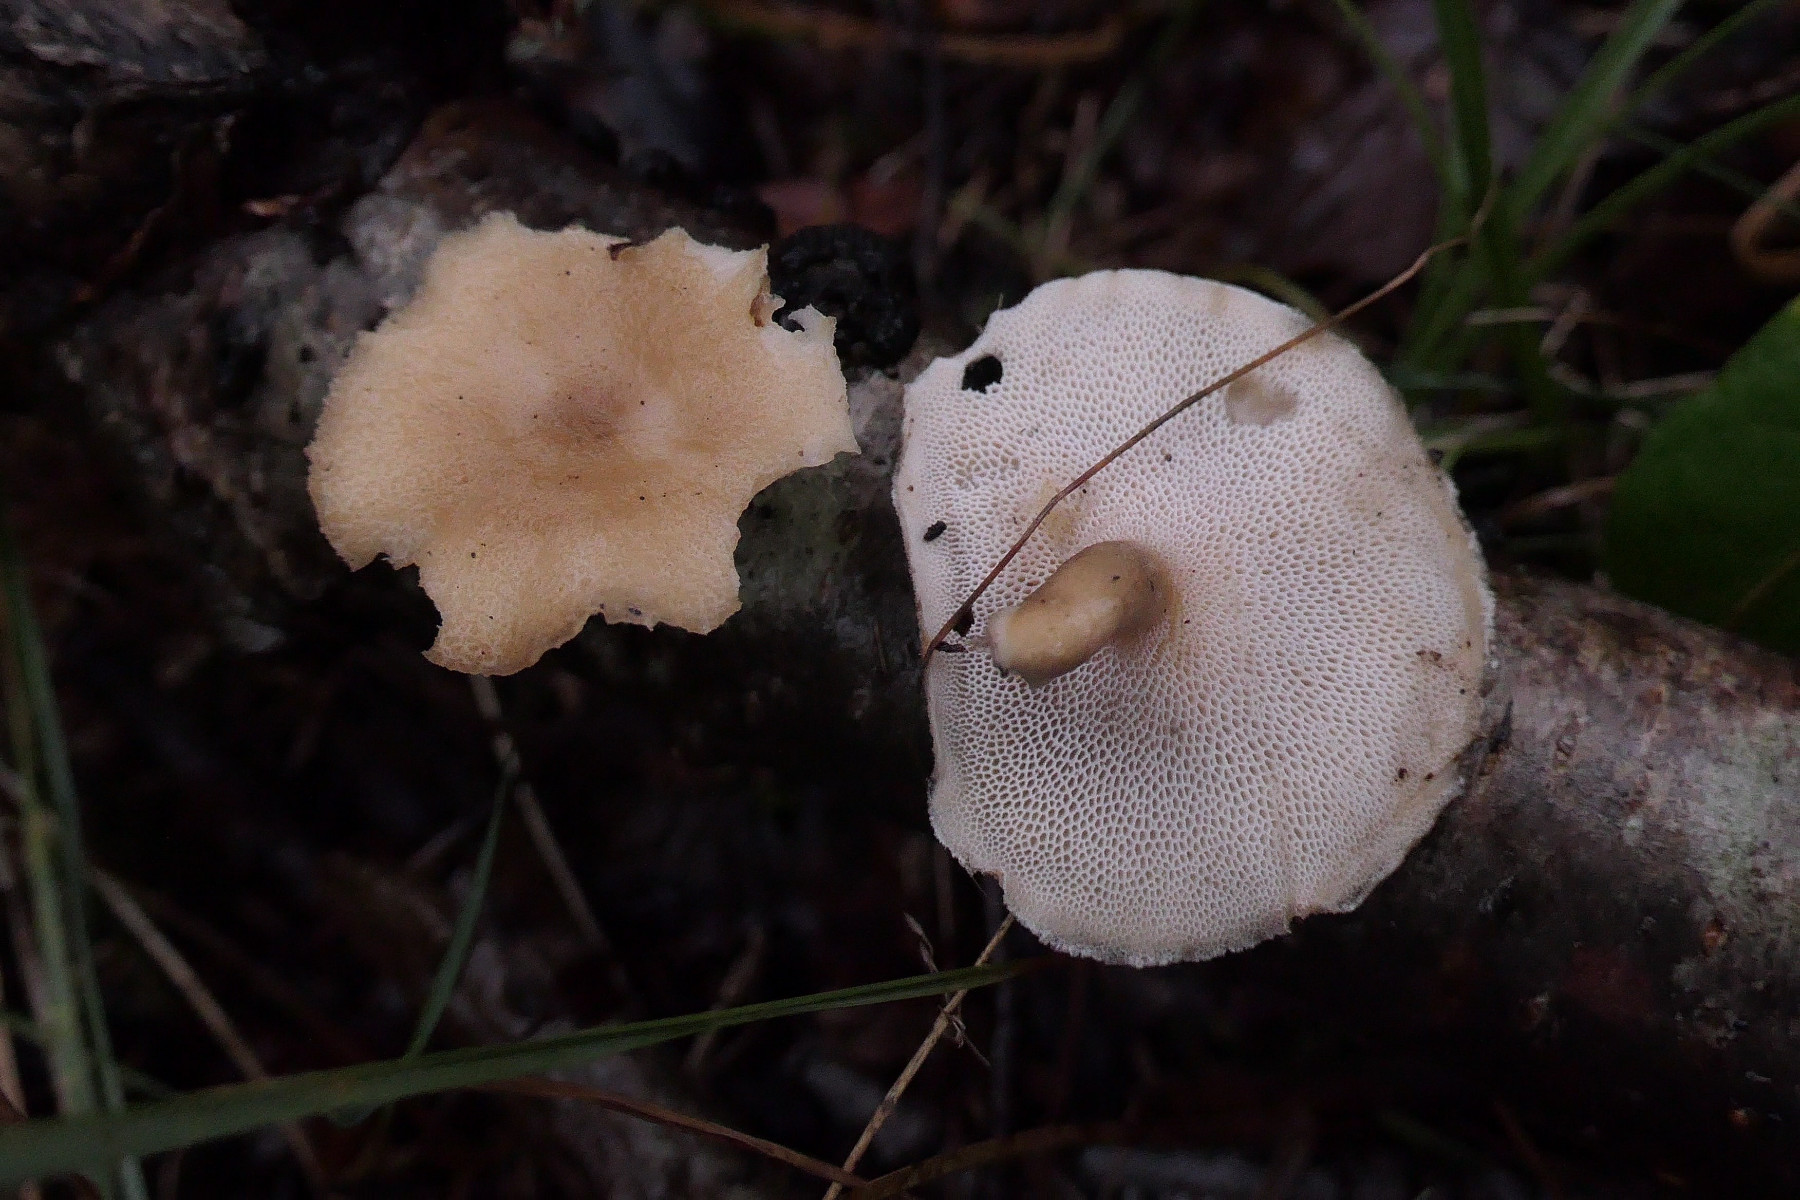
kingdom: Fungi
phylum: Basidiomycota
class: Agaricomycetes
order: Polyporales
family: Polyporaceae
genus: Lentinus
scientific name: Lentinus brumalis
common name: vinter-stilkporesvamp
